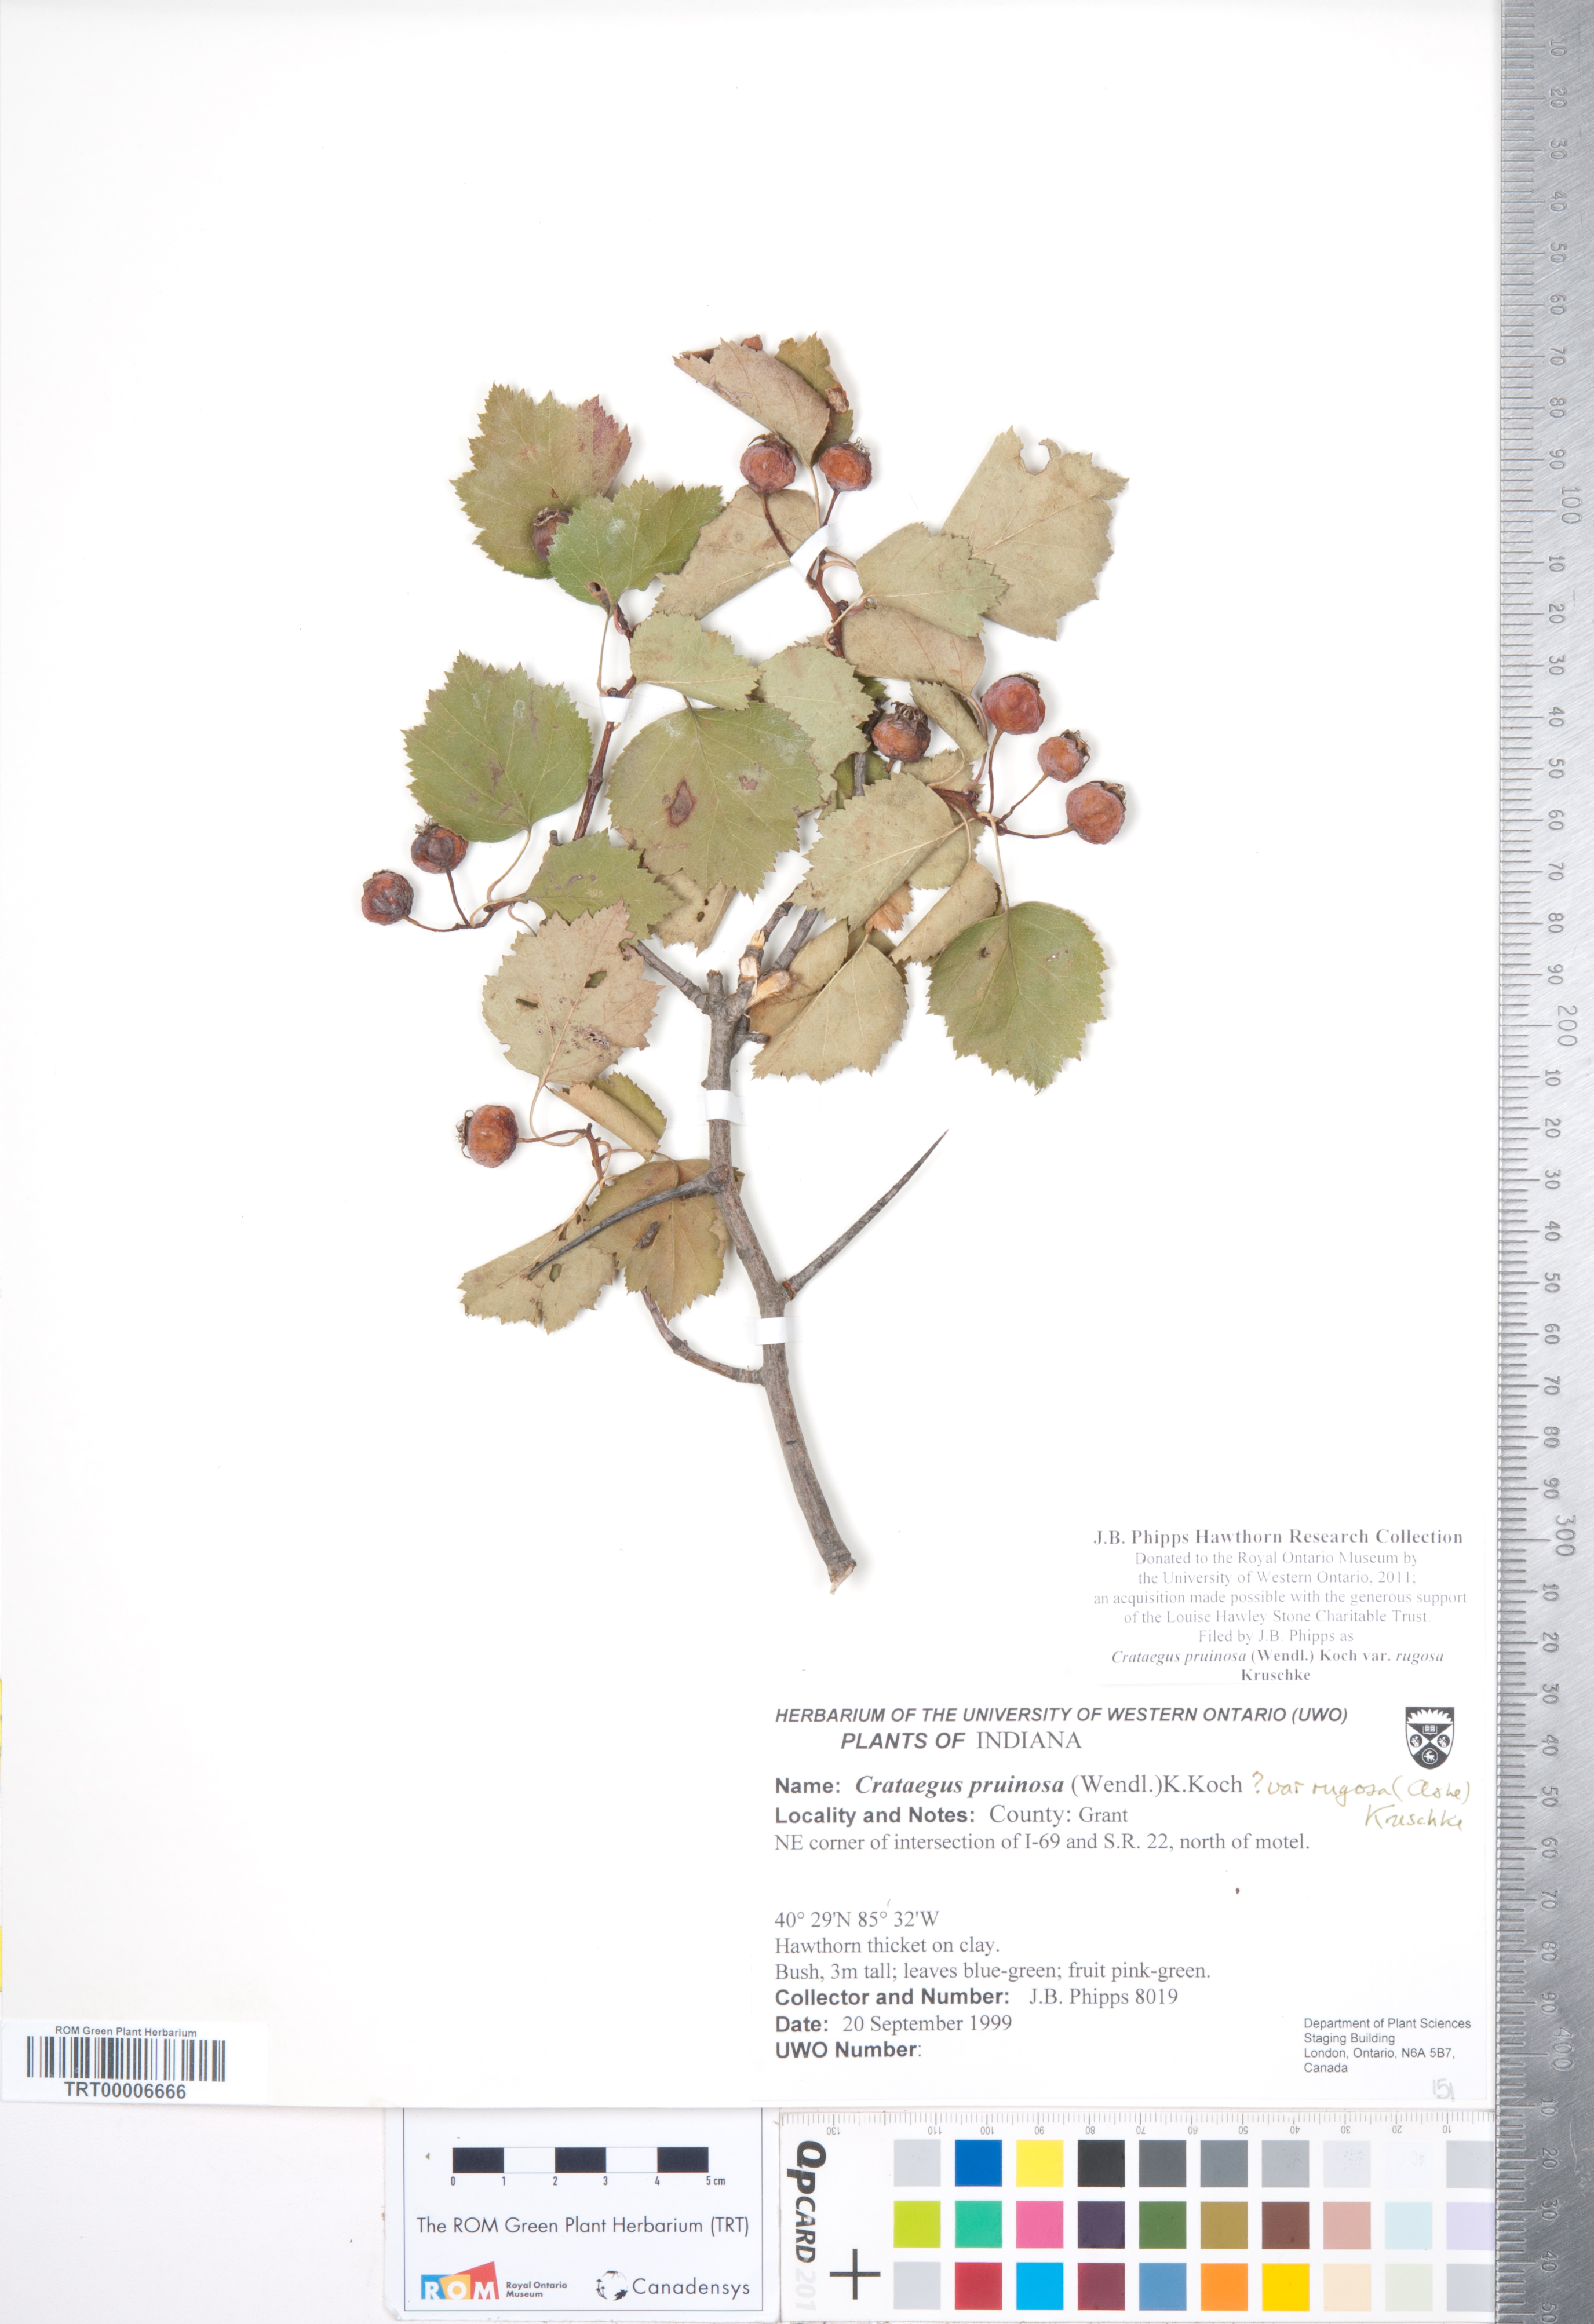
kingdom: Plantae
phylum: Tracheophyta
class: Magnoliopsida
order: Rosales
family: Rosaceae
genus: Crataegus
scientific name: Crataegus pruinosa
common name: Waxy-fruit hawthorn
